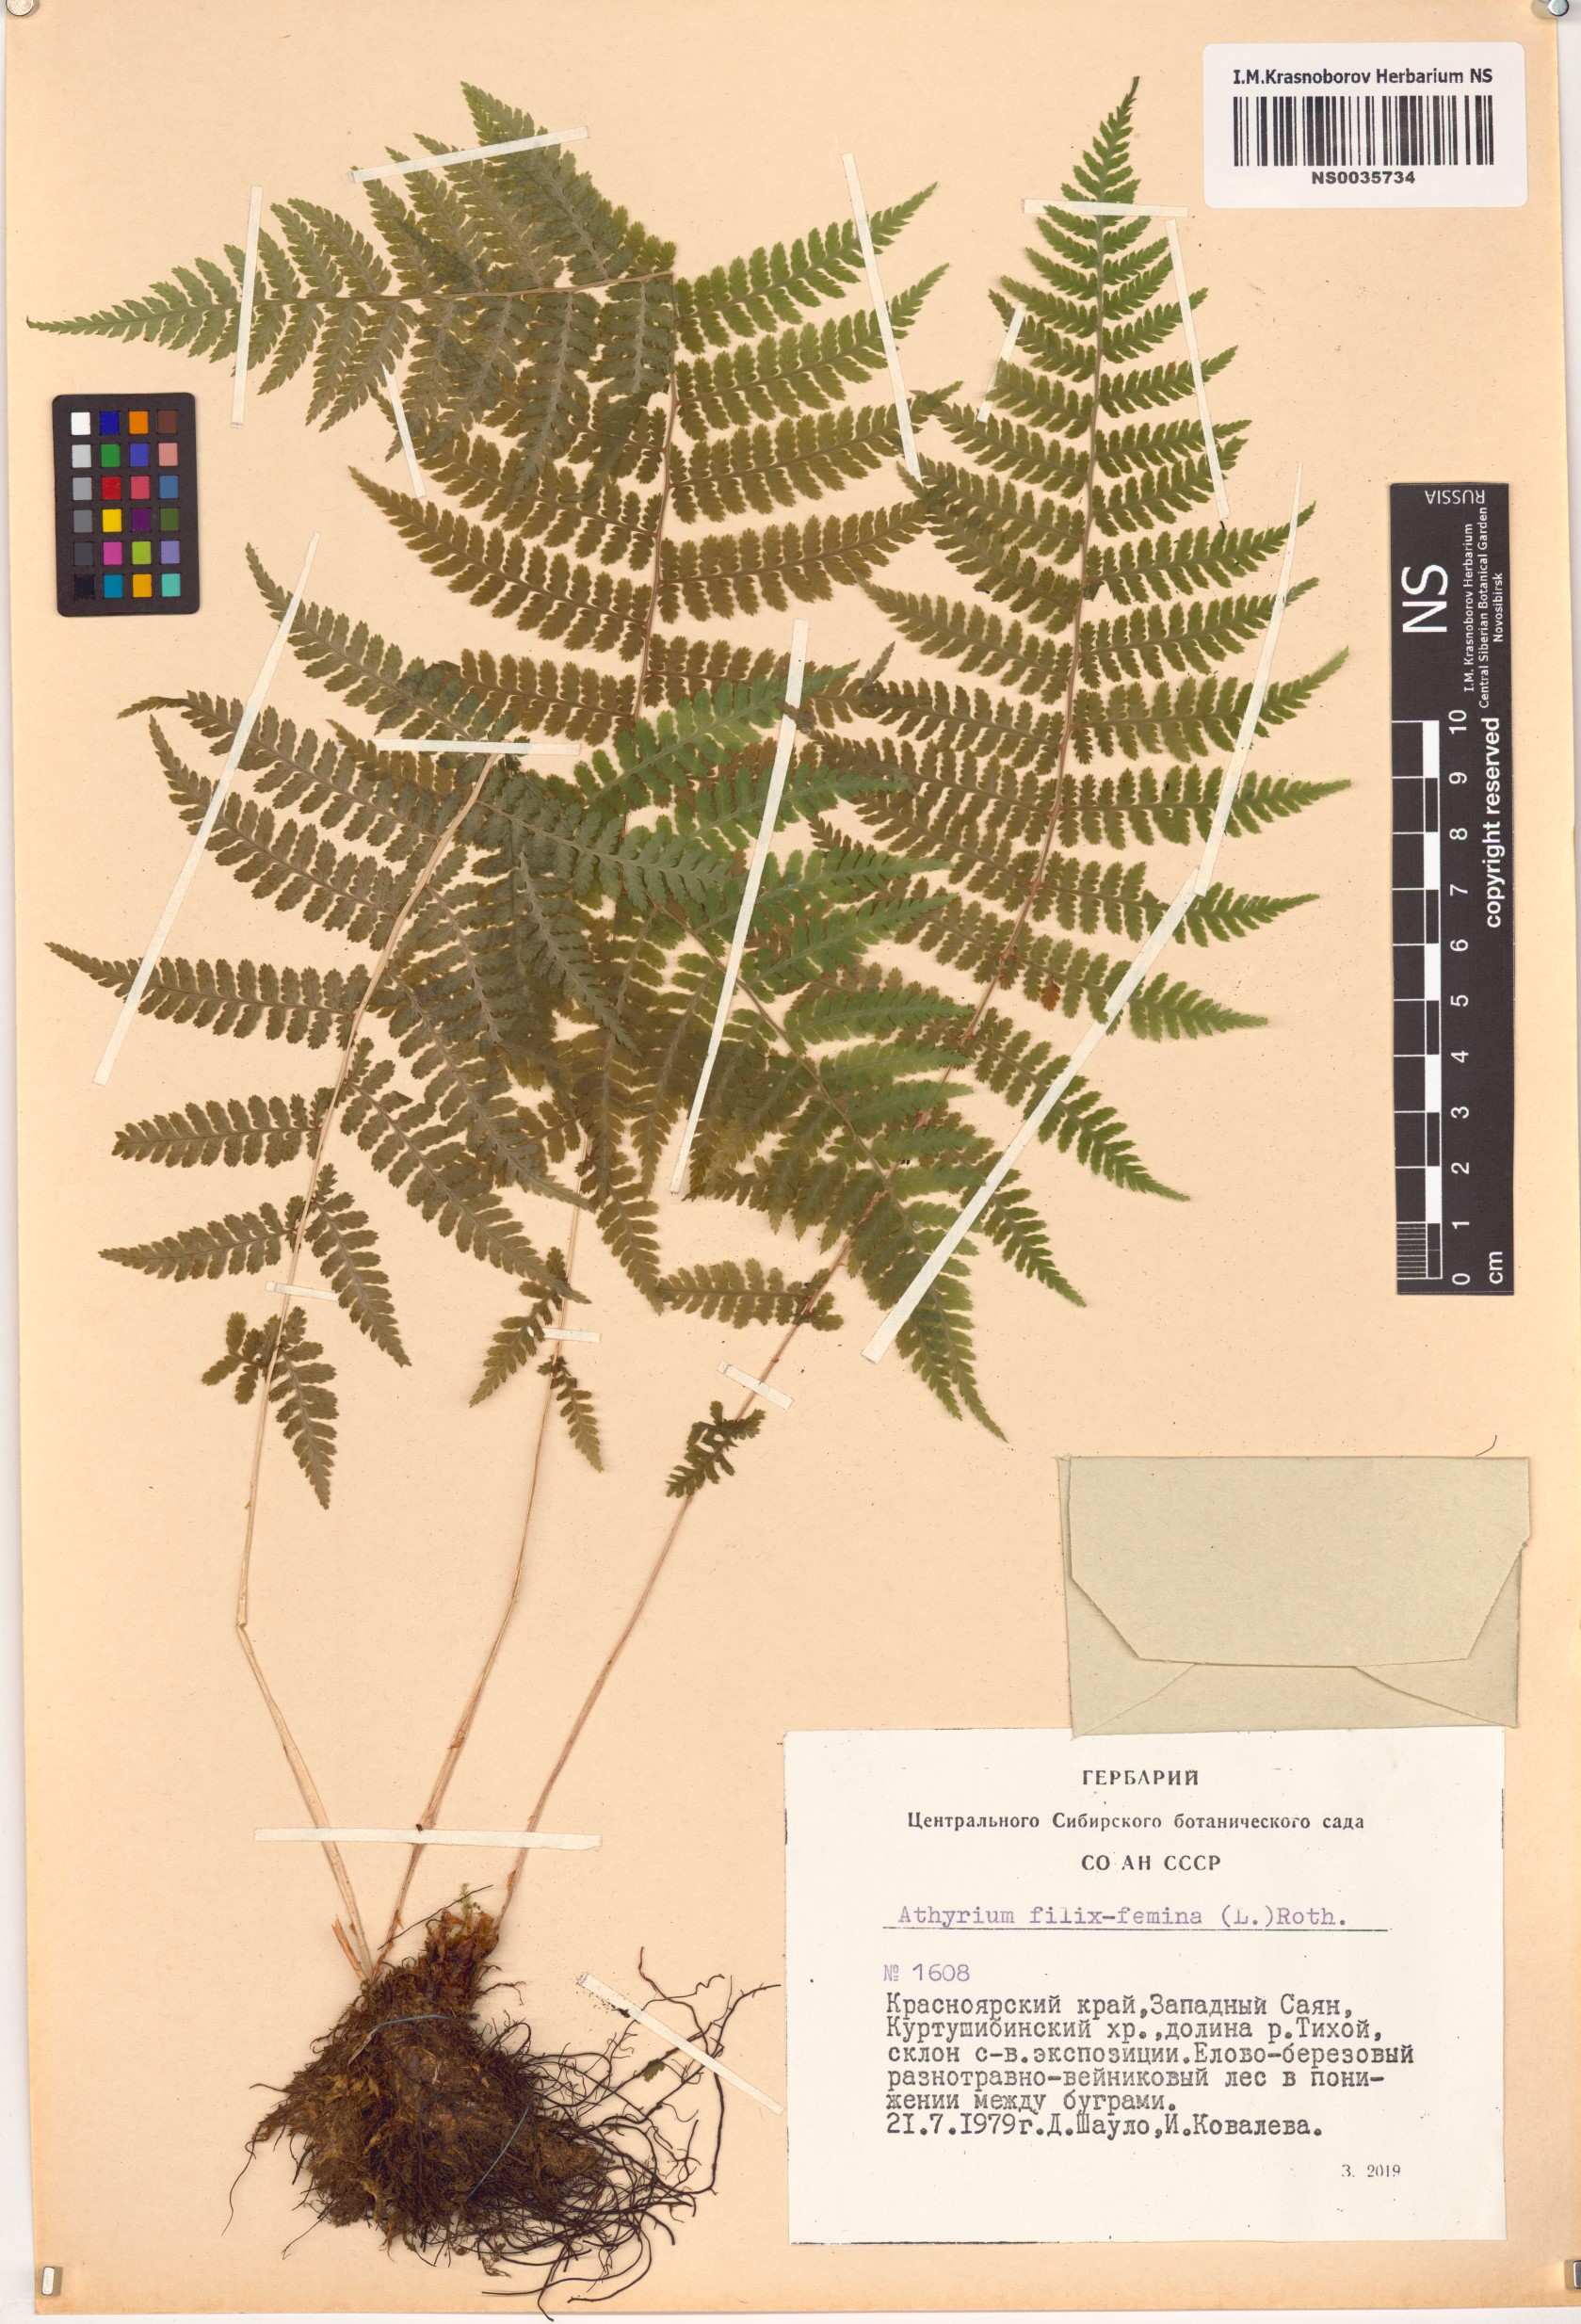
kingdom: Plantae
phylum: Tracheophyta
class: Polypodiopsida
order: Polypodiales
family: Athyriaceae
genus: Athyrium
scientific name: Athyrium filix-femina
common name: Lady fern
